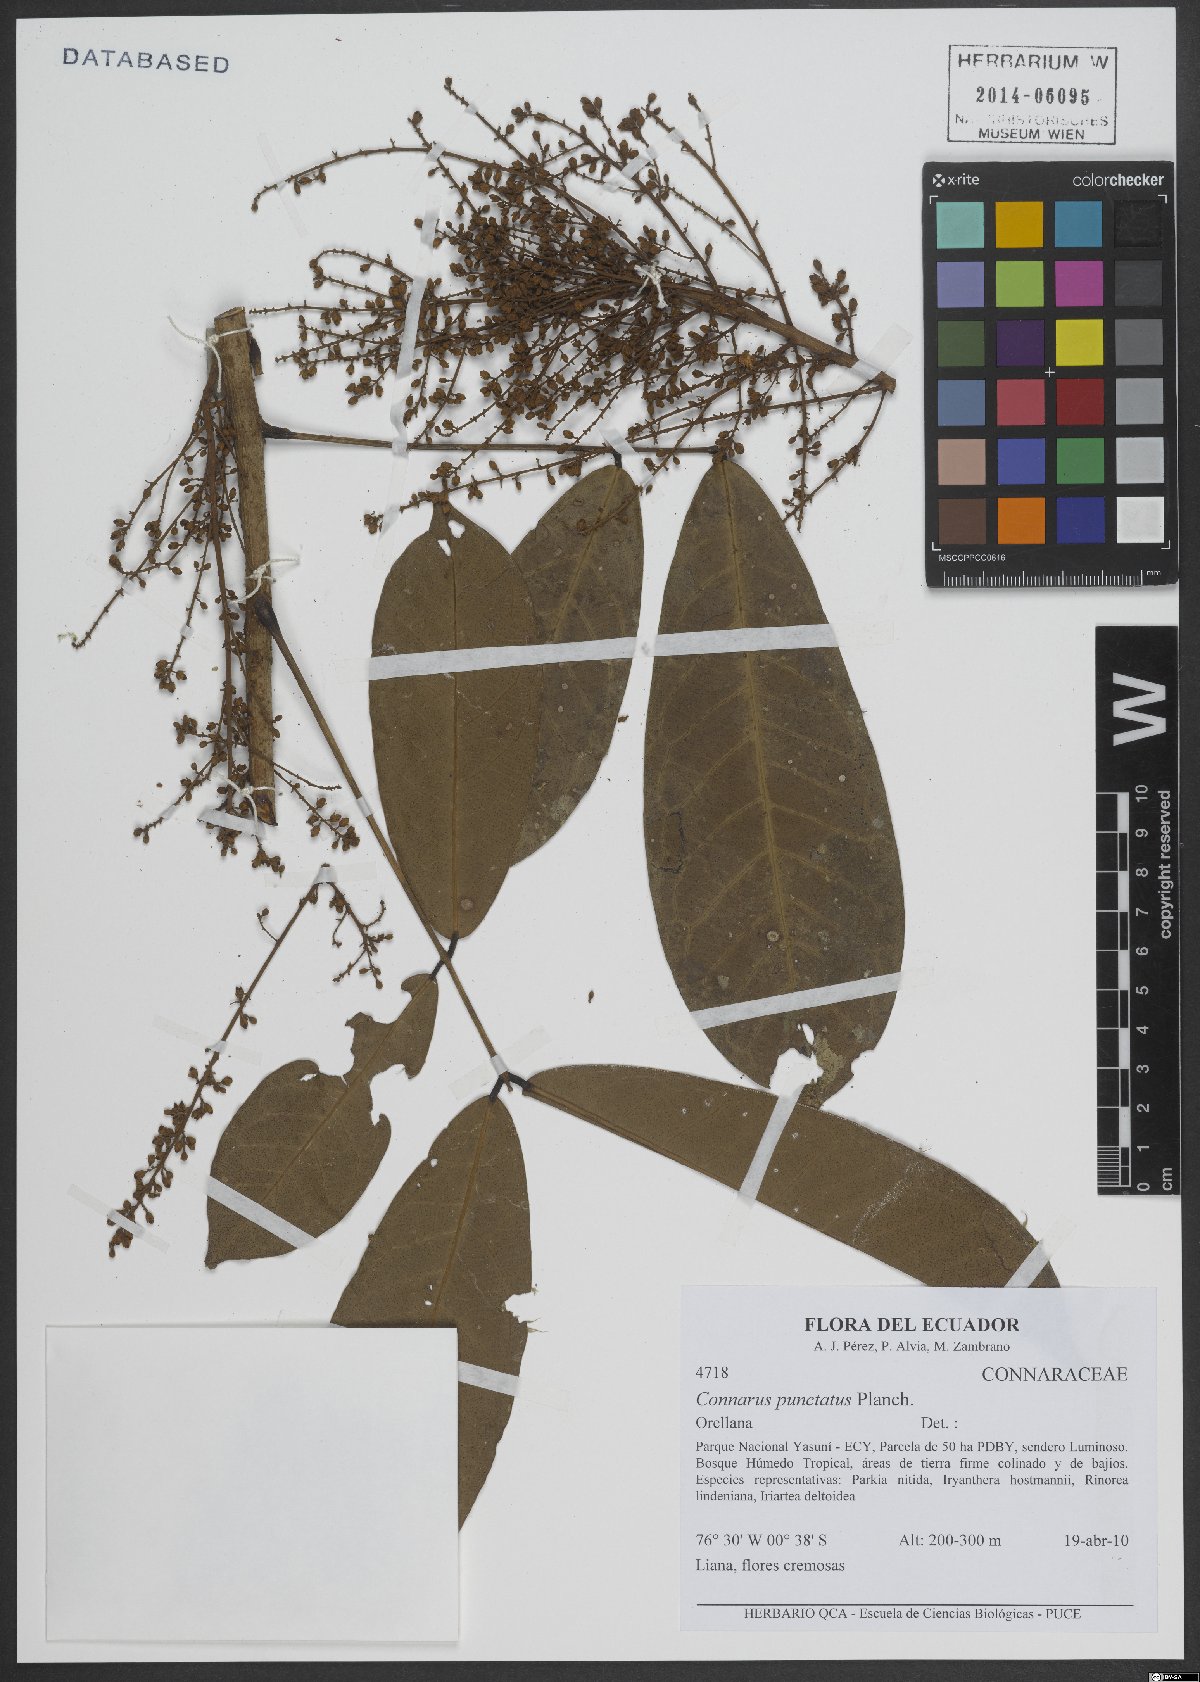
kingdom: Plantae
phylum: Tracheophyta
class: Magnoliopsida
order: Oxalidales
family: Connaraceae
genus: Connarus
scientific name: Connarus punctatus
